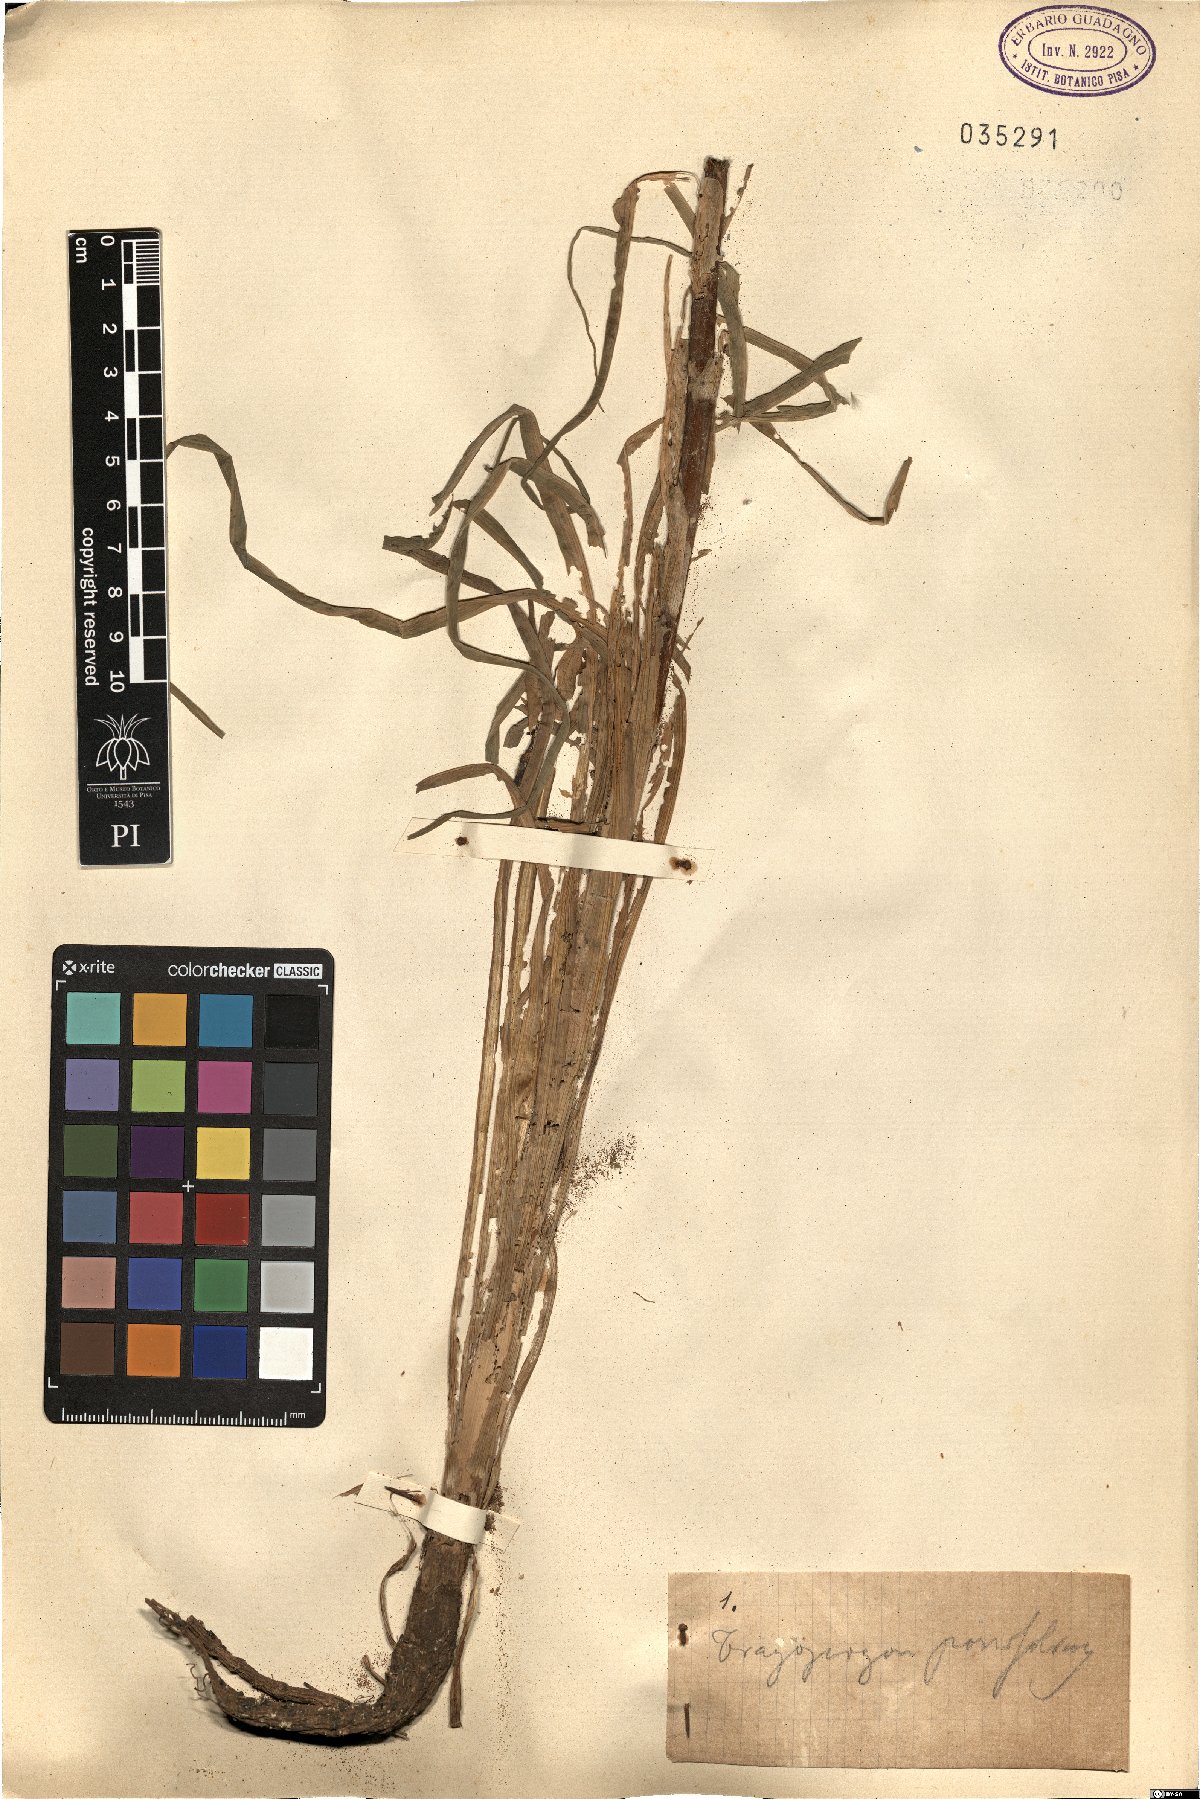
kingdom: Plantae
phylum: Tracheophyta
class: Magnoliopsida
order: Asterales
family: Asteraceae
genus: Tragopogon
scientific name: Tragopogon porrifolius
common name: Salsify
